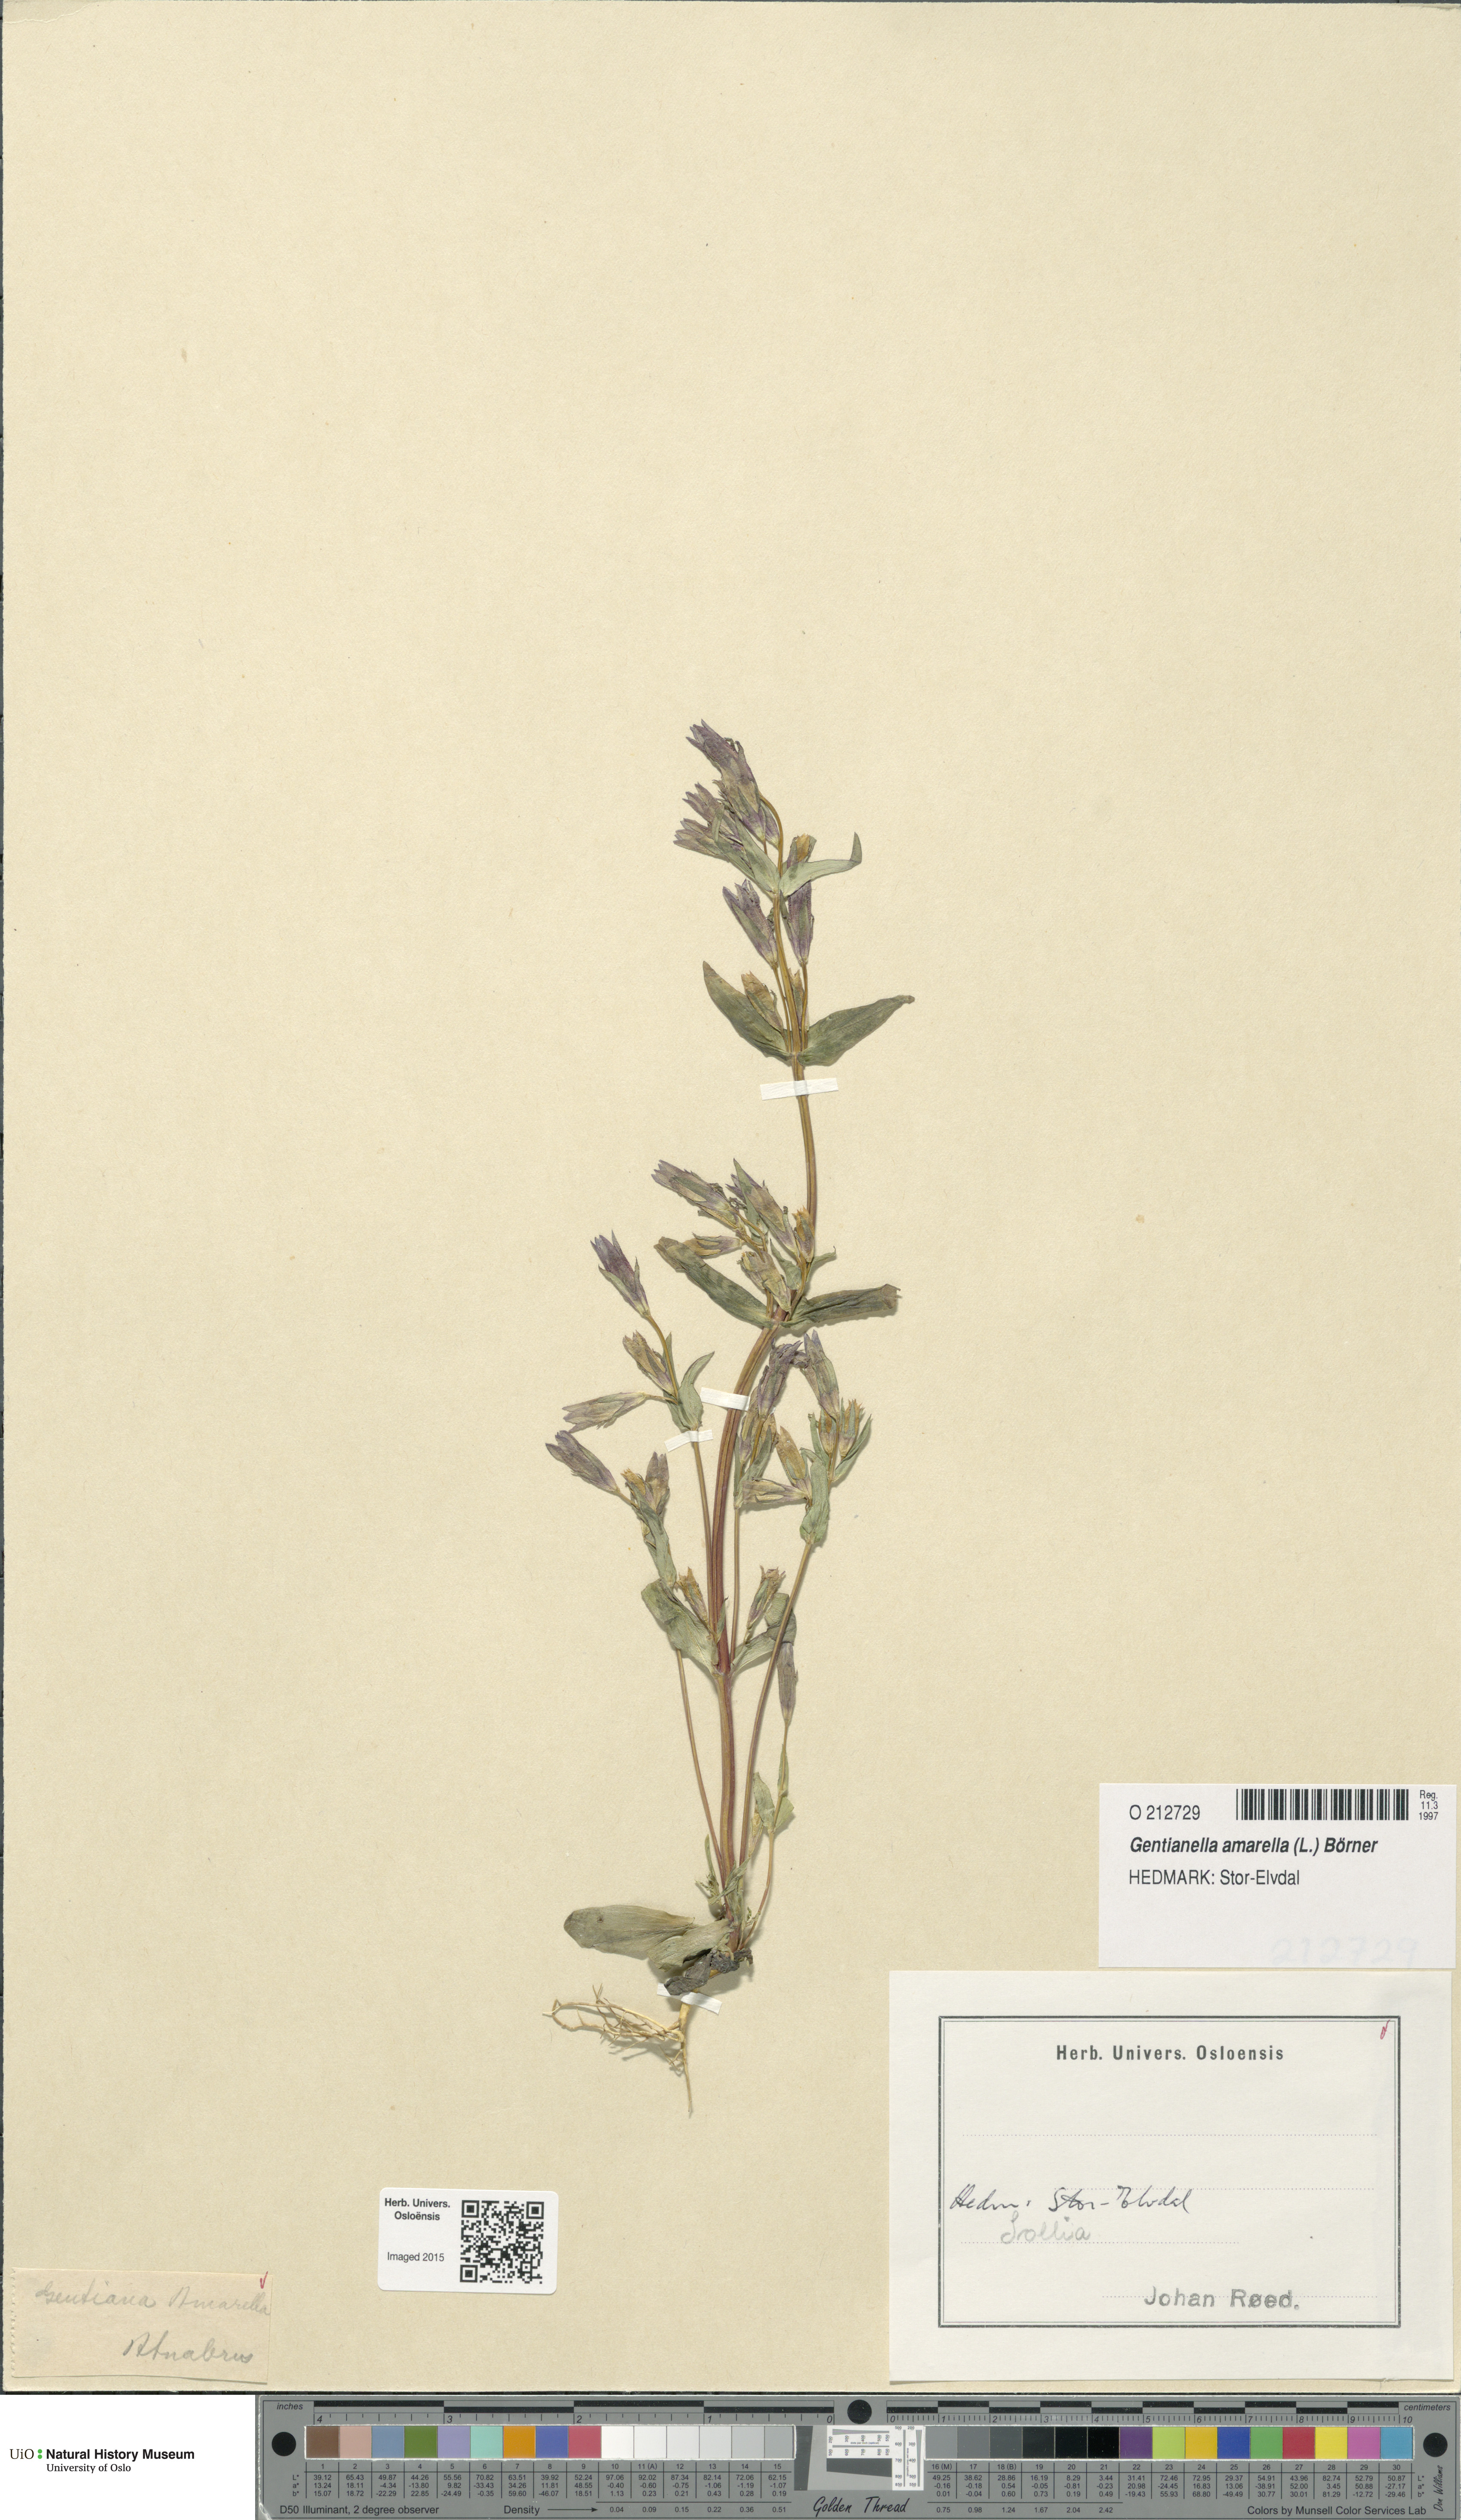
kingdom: Plantae
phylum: Tracheophyta
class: Magnoliopsida
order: Gentianales
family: Gentianaceae
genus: Gentianella
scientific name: Gentianella amarella
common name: Autumn gentian
